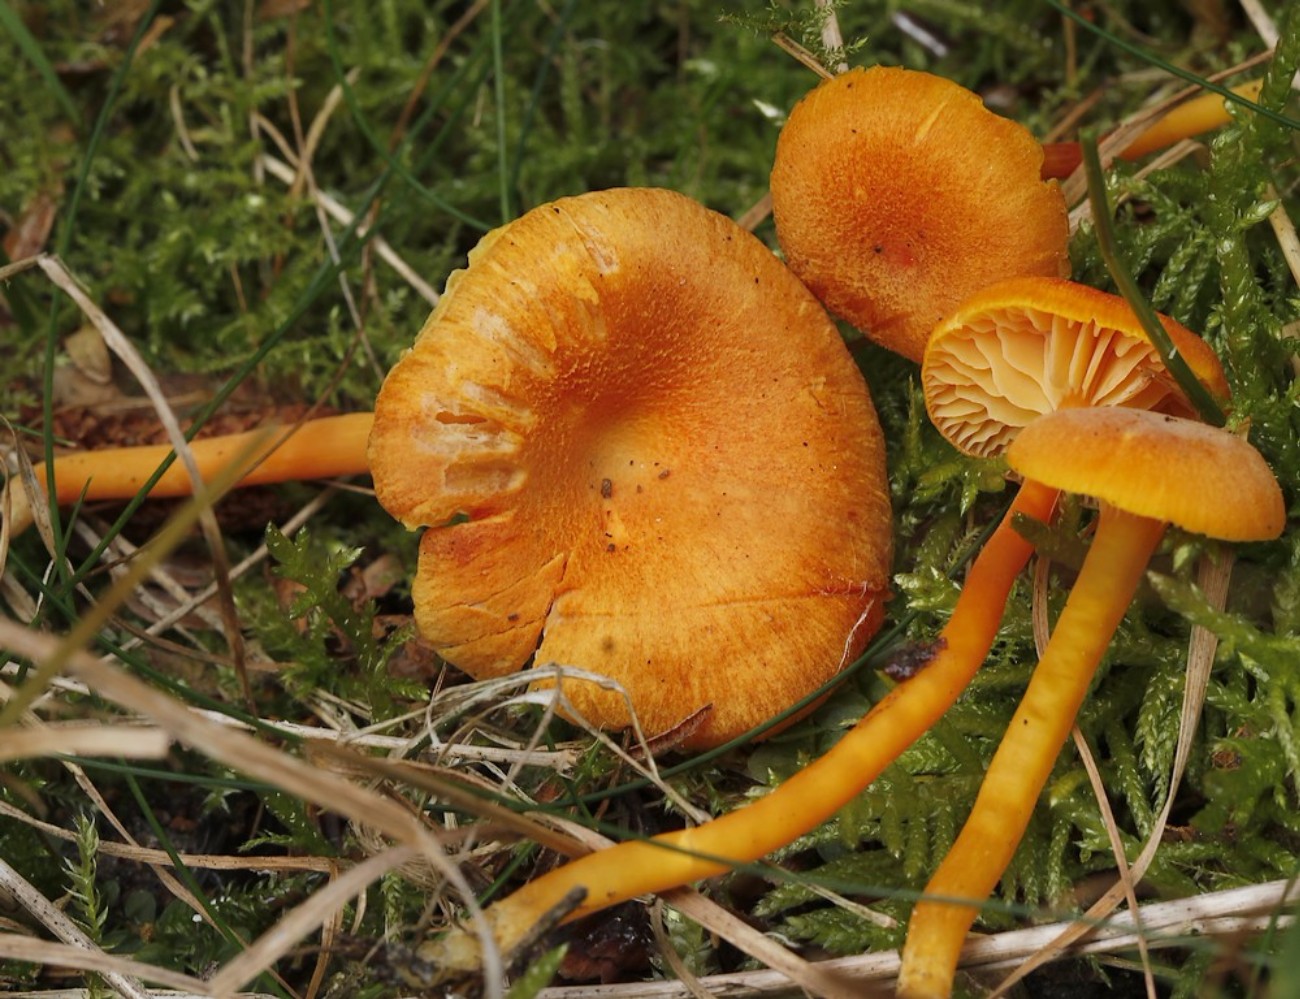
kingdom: Fungi
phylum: Basidiomycota
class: Agaricomycetes
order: Agaricales
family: Hygrophoraceae
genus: Hygrocybe
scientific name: Hygrocybe miniata
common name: mønje-vokshat
